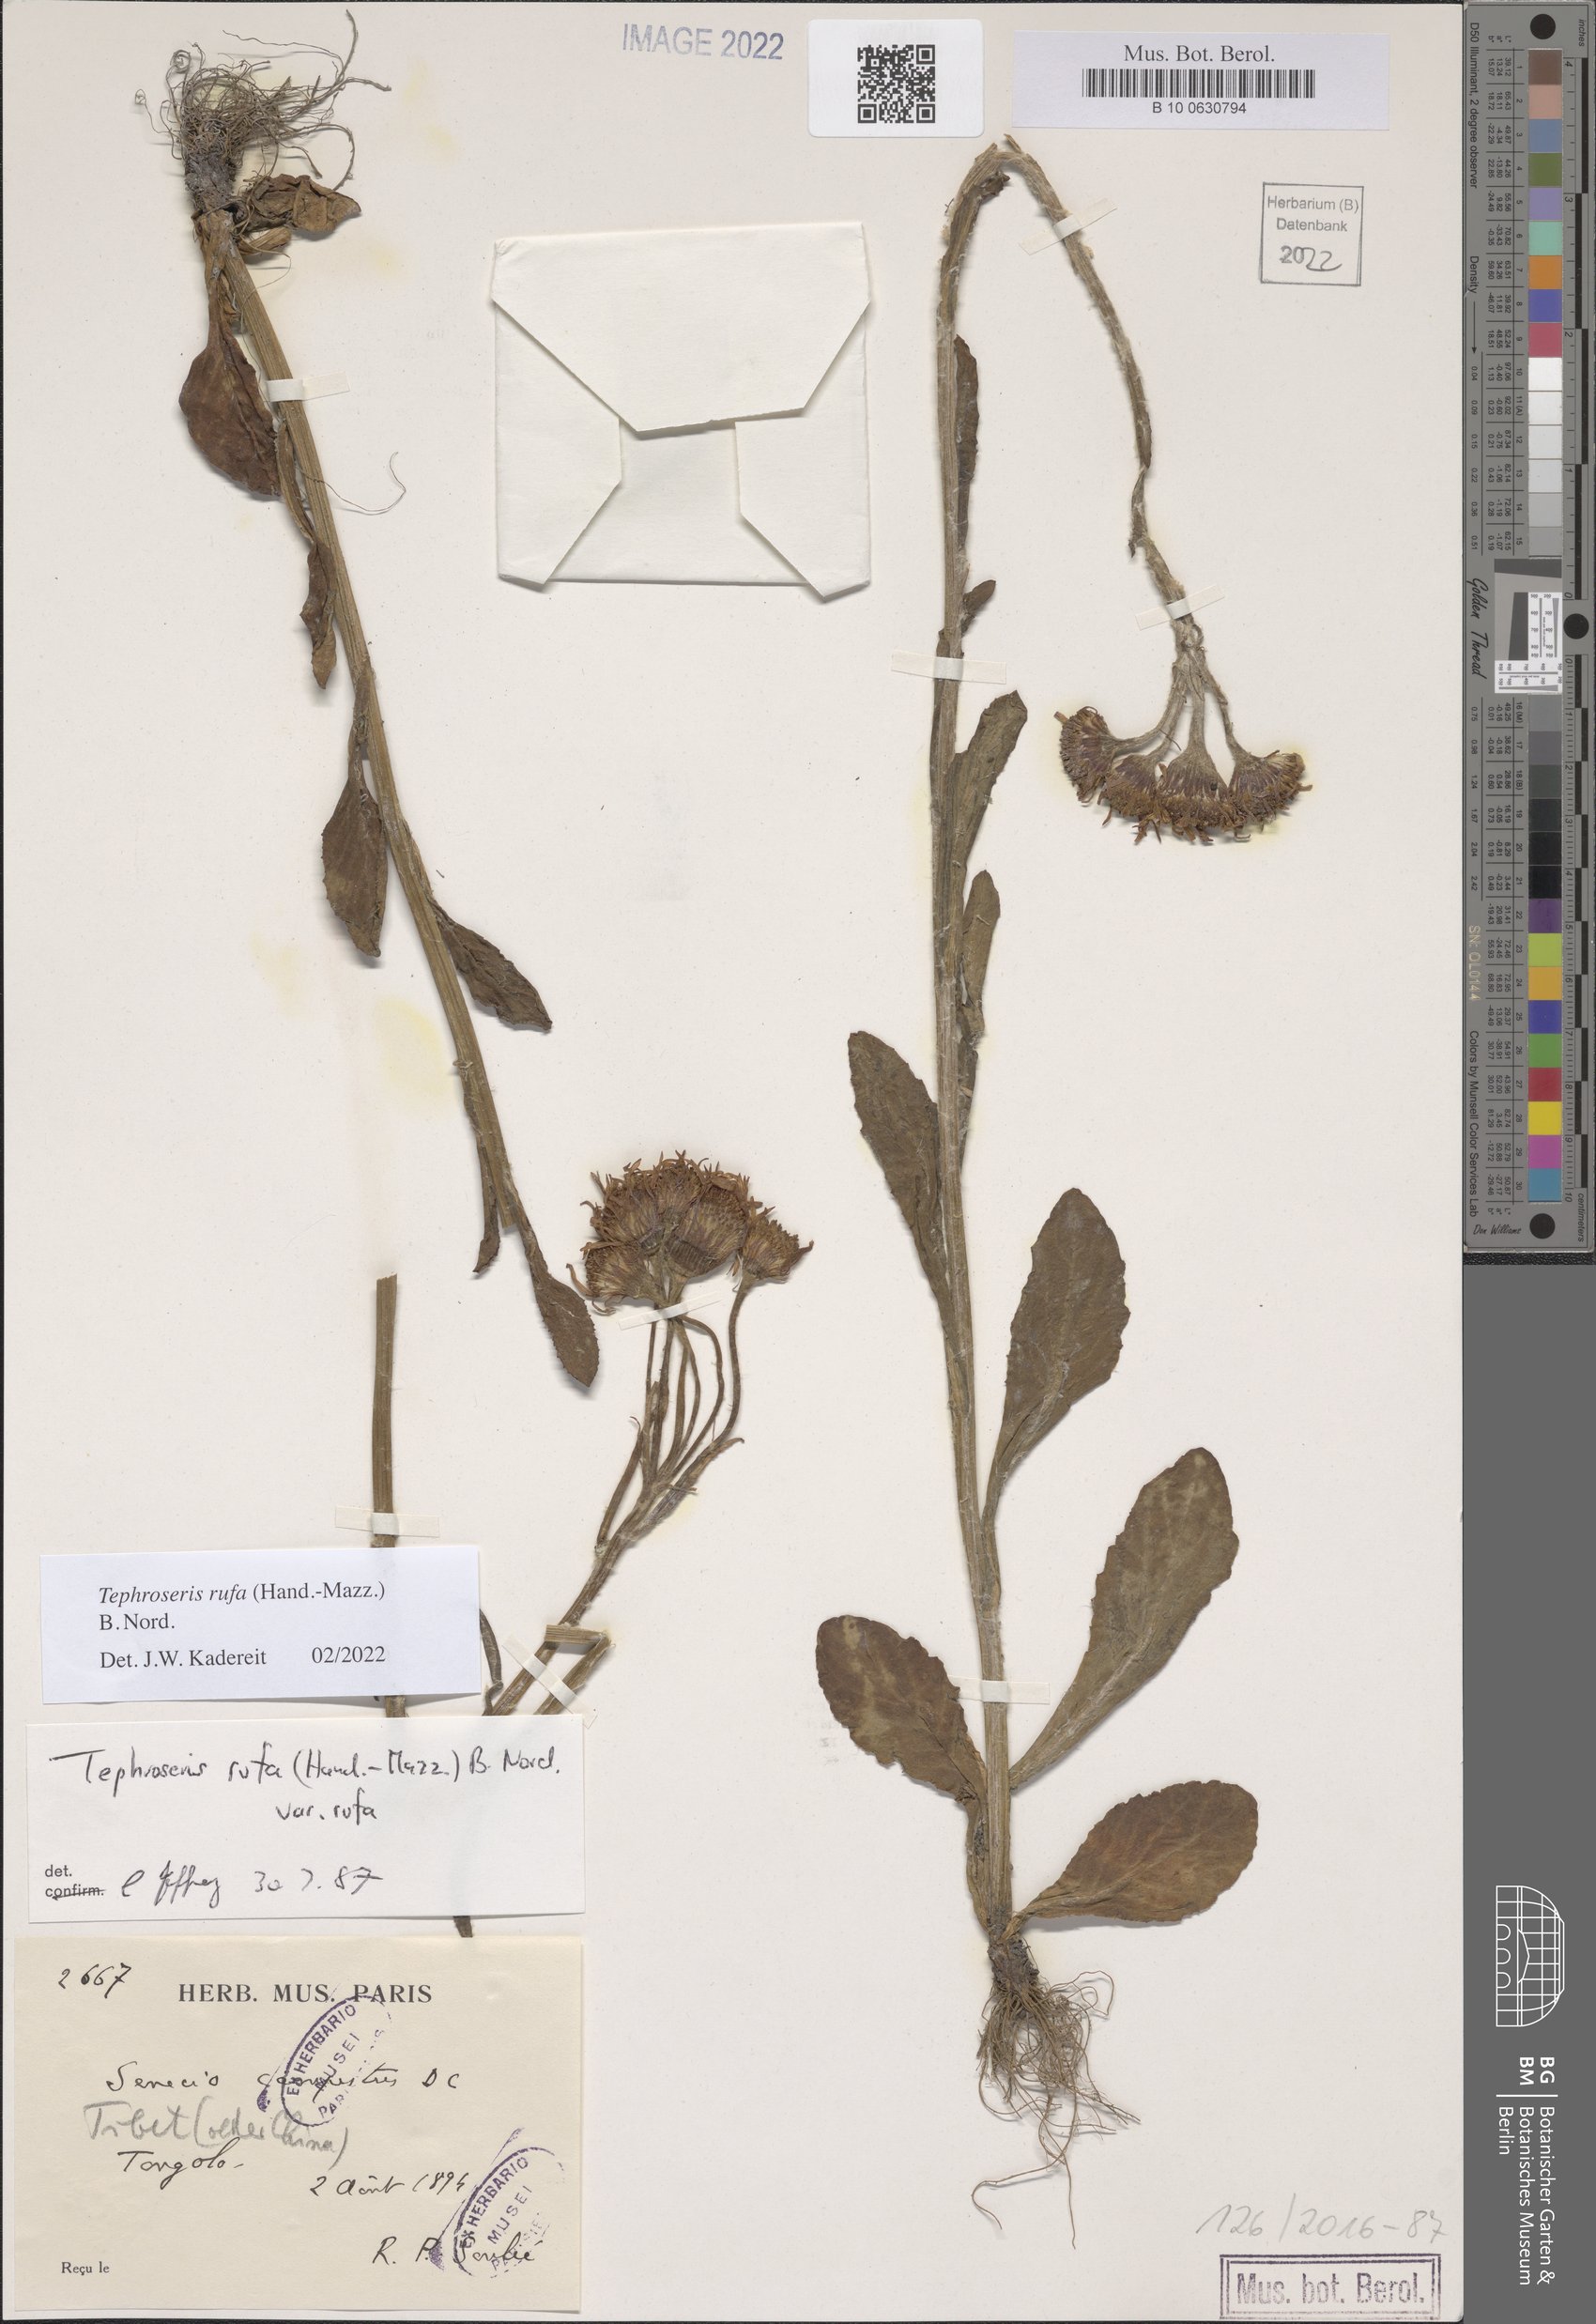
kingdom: Plantae
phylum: Tracheophyta
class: Magnoliopsida
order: Asterales
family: Asteraceae
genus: Tephroseris
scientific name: Tephroseris rufa
